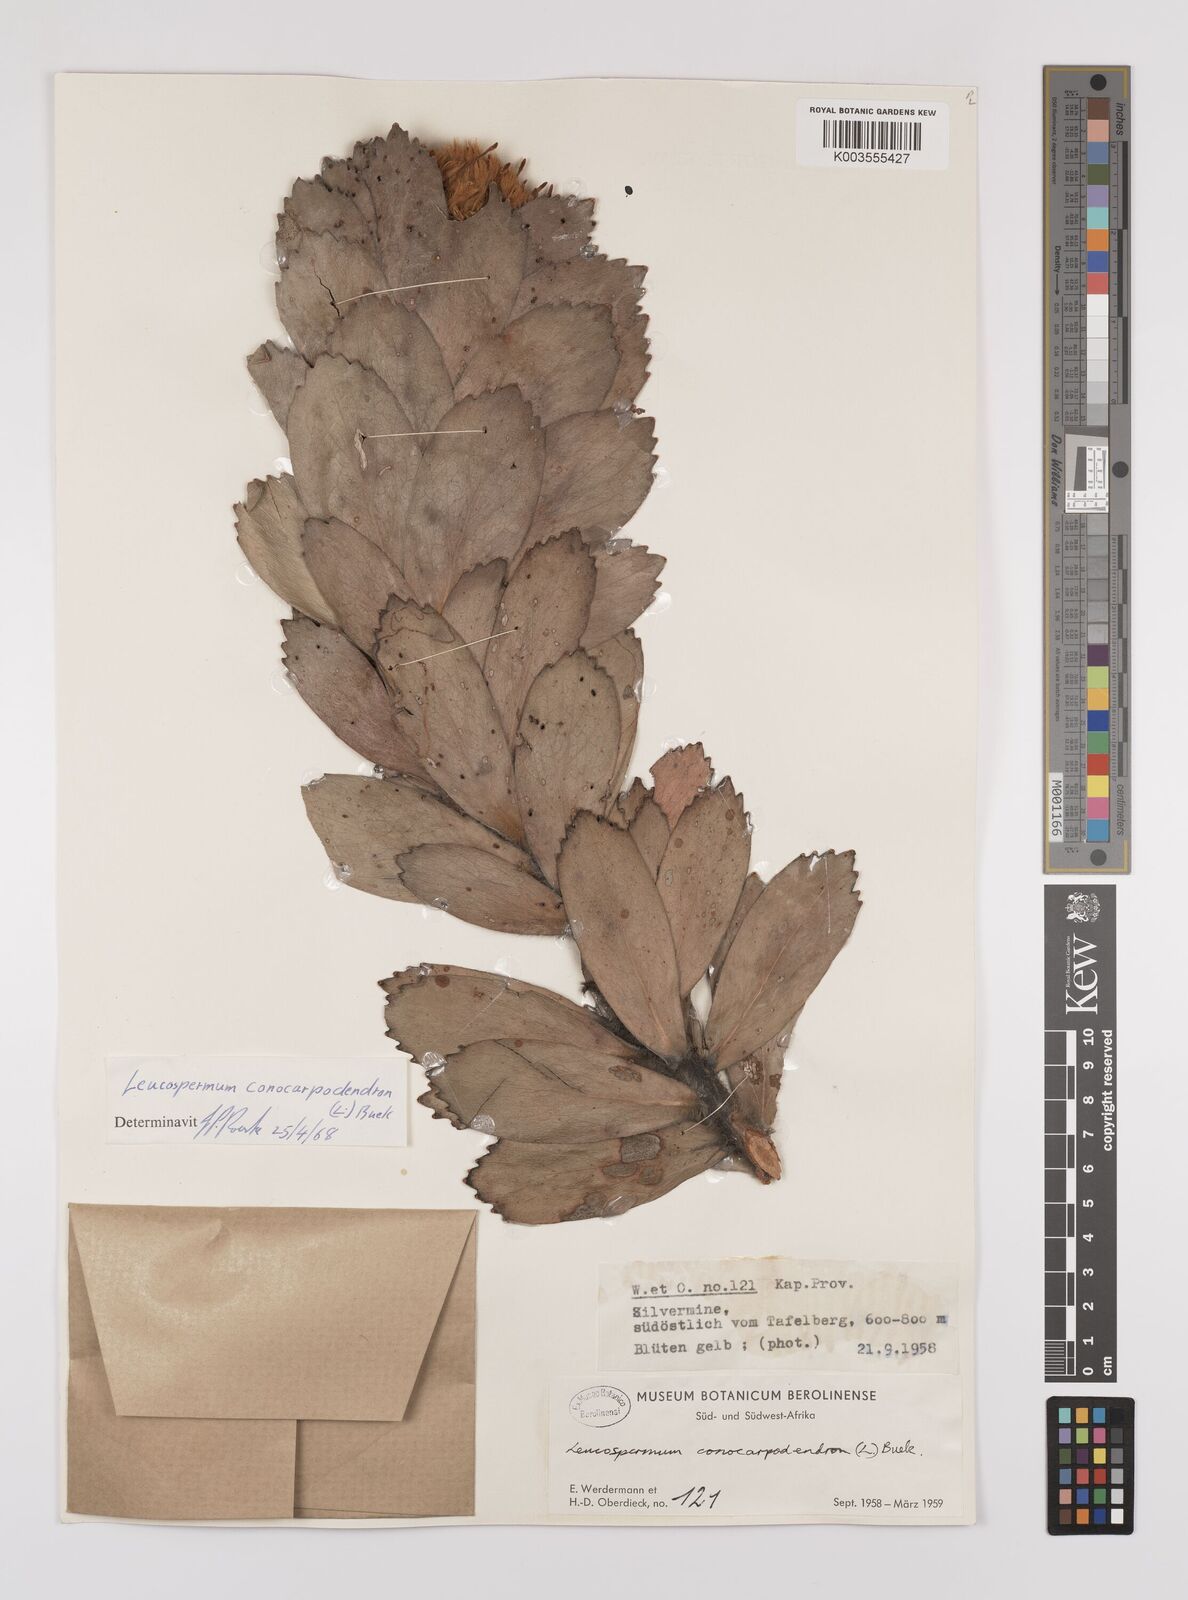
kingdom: Plantae
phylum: Tracheophyta
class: Magnoliopsida
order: Proteales
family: Proteaceae
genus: Leucospermum
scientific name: Leucospermum conocarpodendron
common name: Tree pincushion
